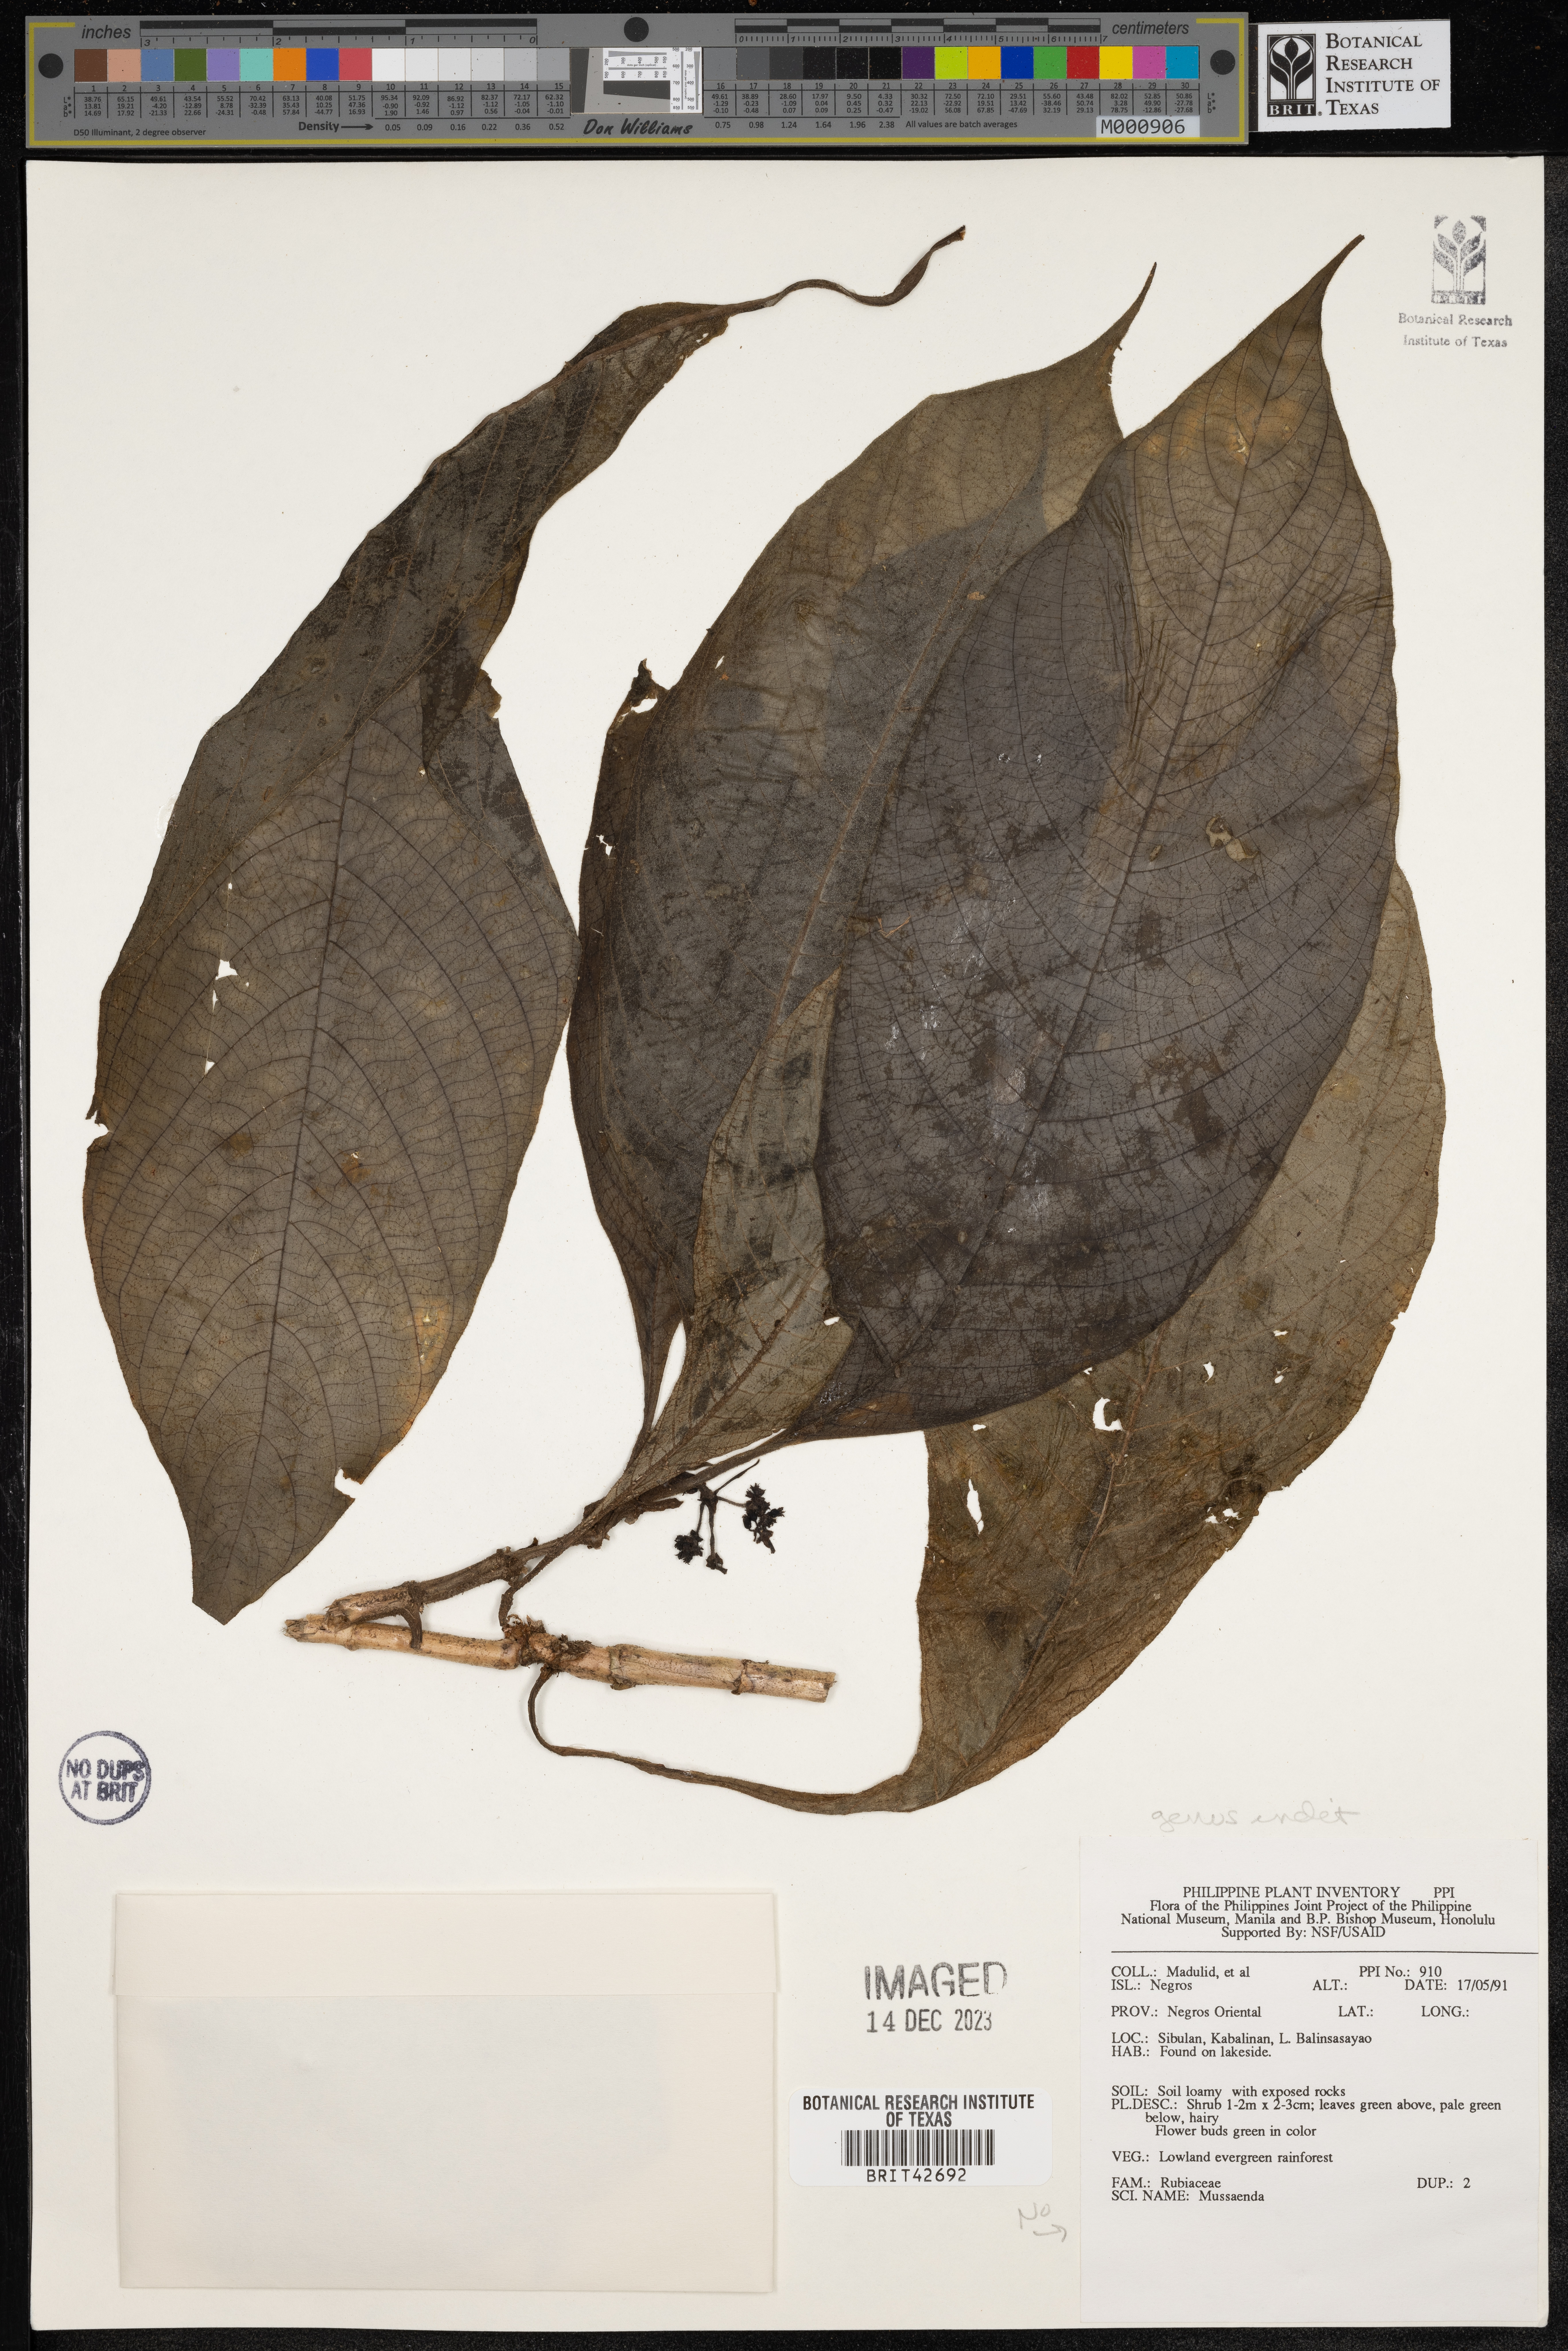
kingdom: Plantae
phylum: Tracheophyta
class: Magnoliopsida
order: Gentianales
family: Rubiaceae
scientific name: Rubiaceae
